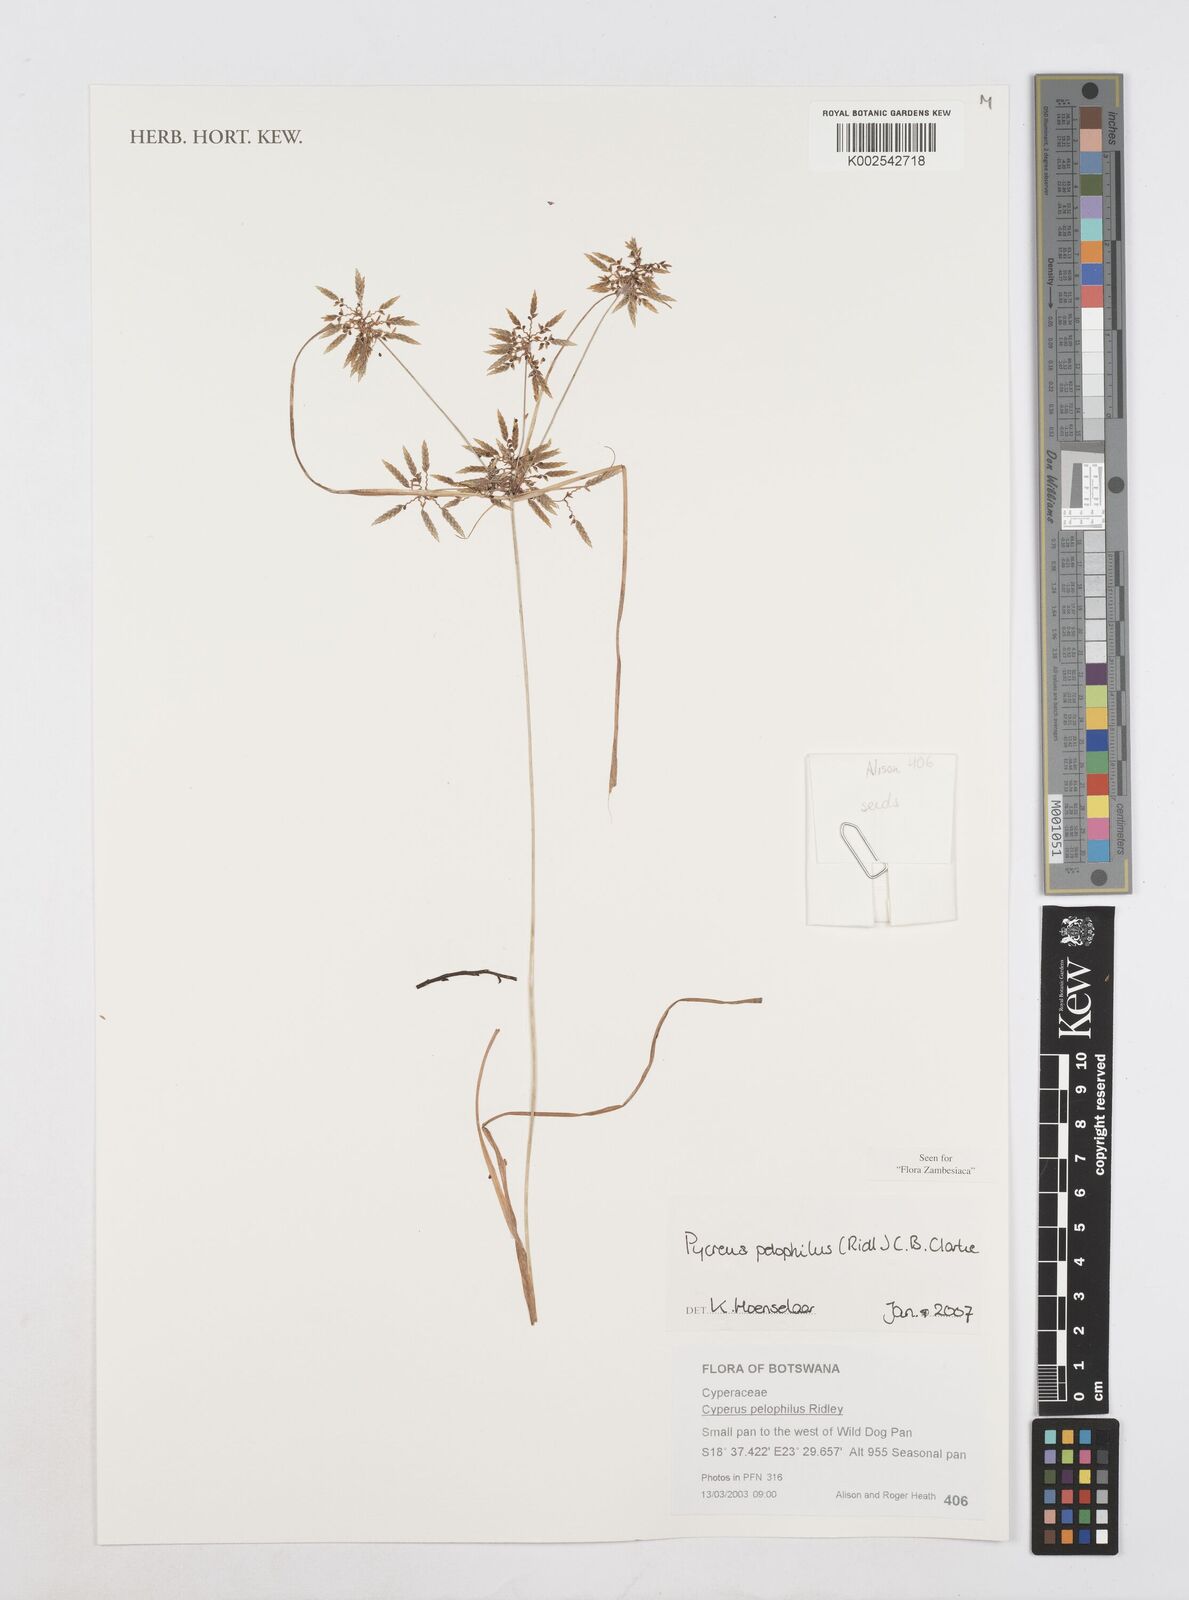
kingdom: Plantae
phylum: Tracheophyta
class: Liliopsida
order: Poales
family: Cyperaceae
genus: Cyperus
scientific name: Cyperus pelophilus
